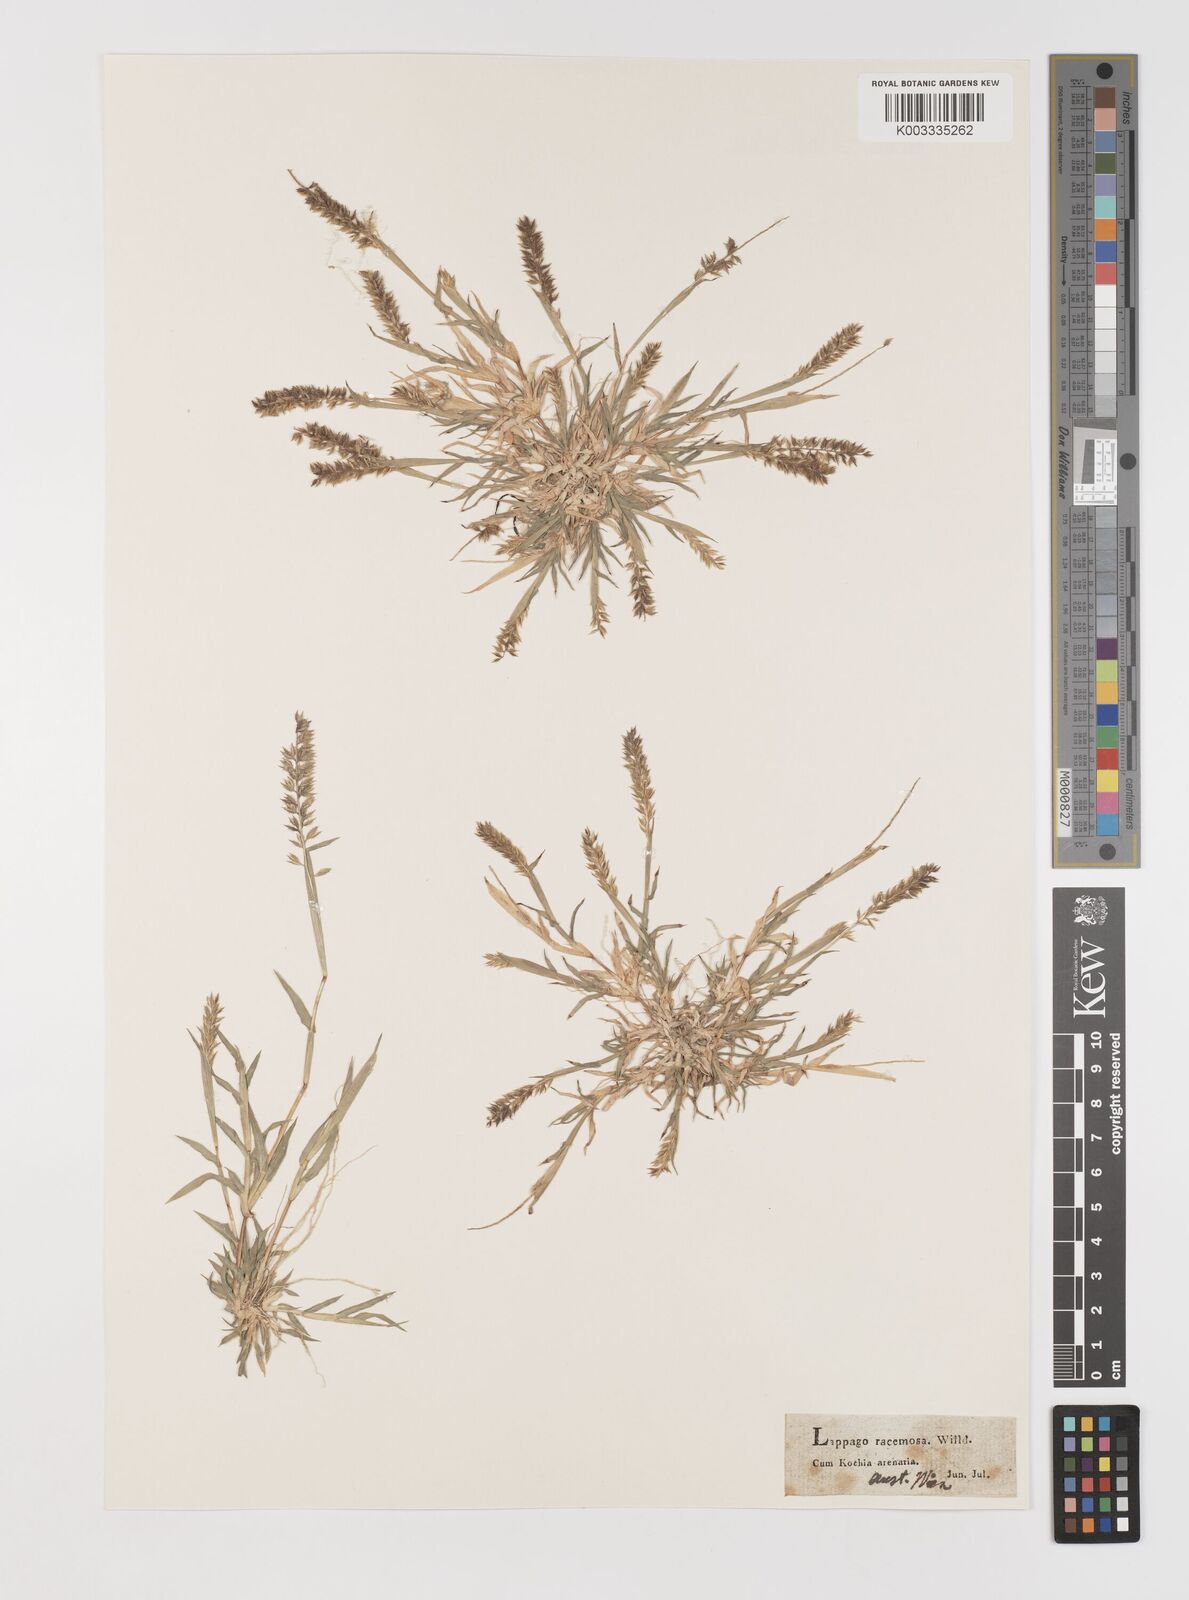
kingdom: Plantae
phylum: Tracheophyta
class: Liliopsida
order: Poales
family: Poaceae
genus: Tragus
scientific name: Tragus racemosus
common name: European bur-grass
